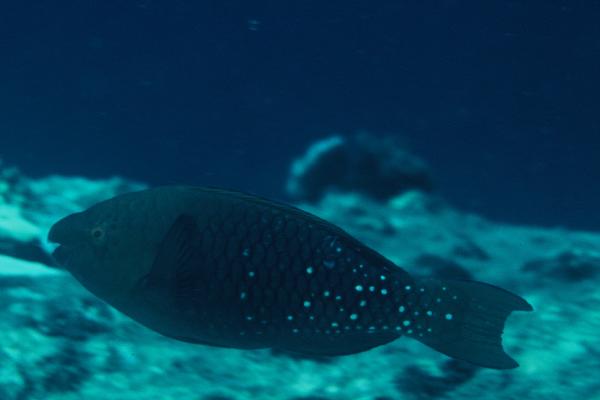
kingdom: Animalia
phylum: Chordata
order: Perciformes
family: Scaridae
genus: Scarus
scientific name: Scarus prasiognathos
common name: Singapore parrotfish
